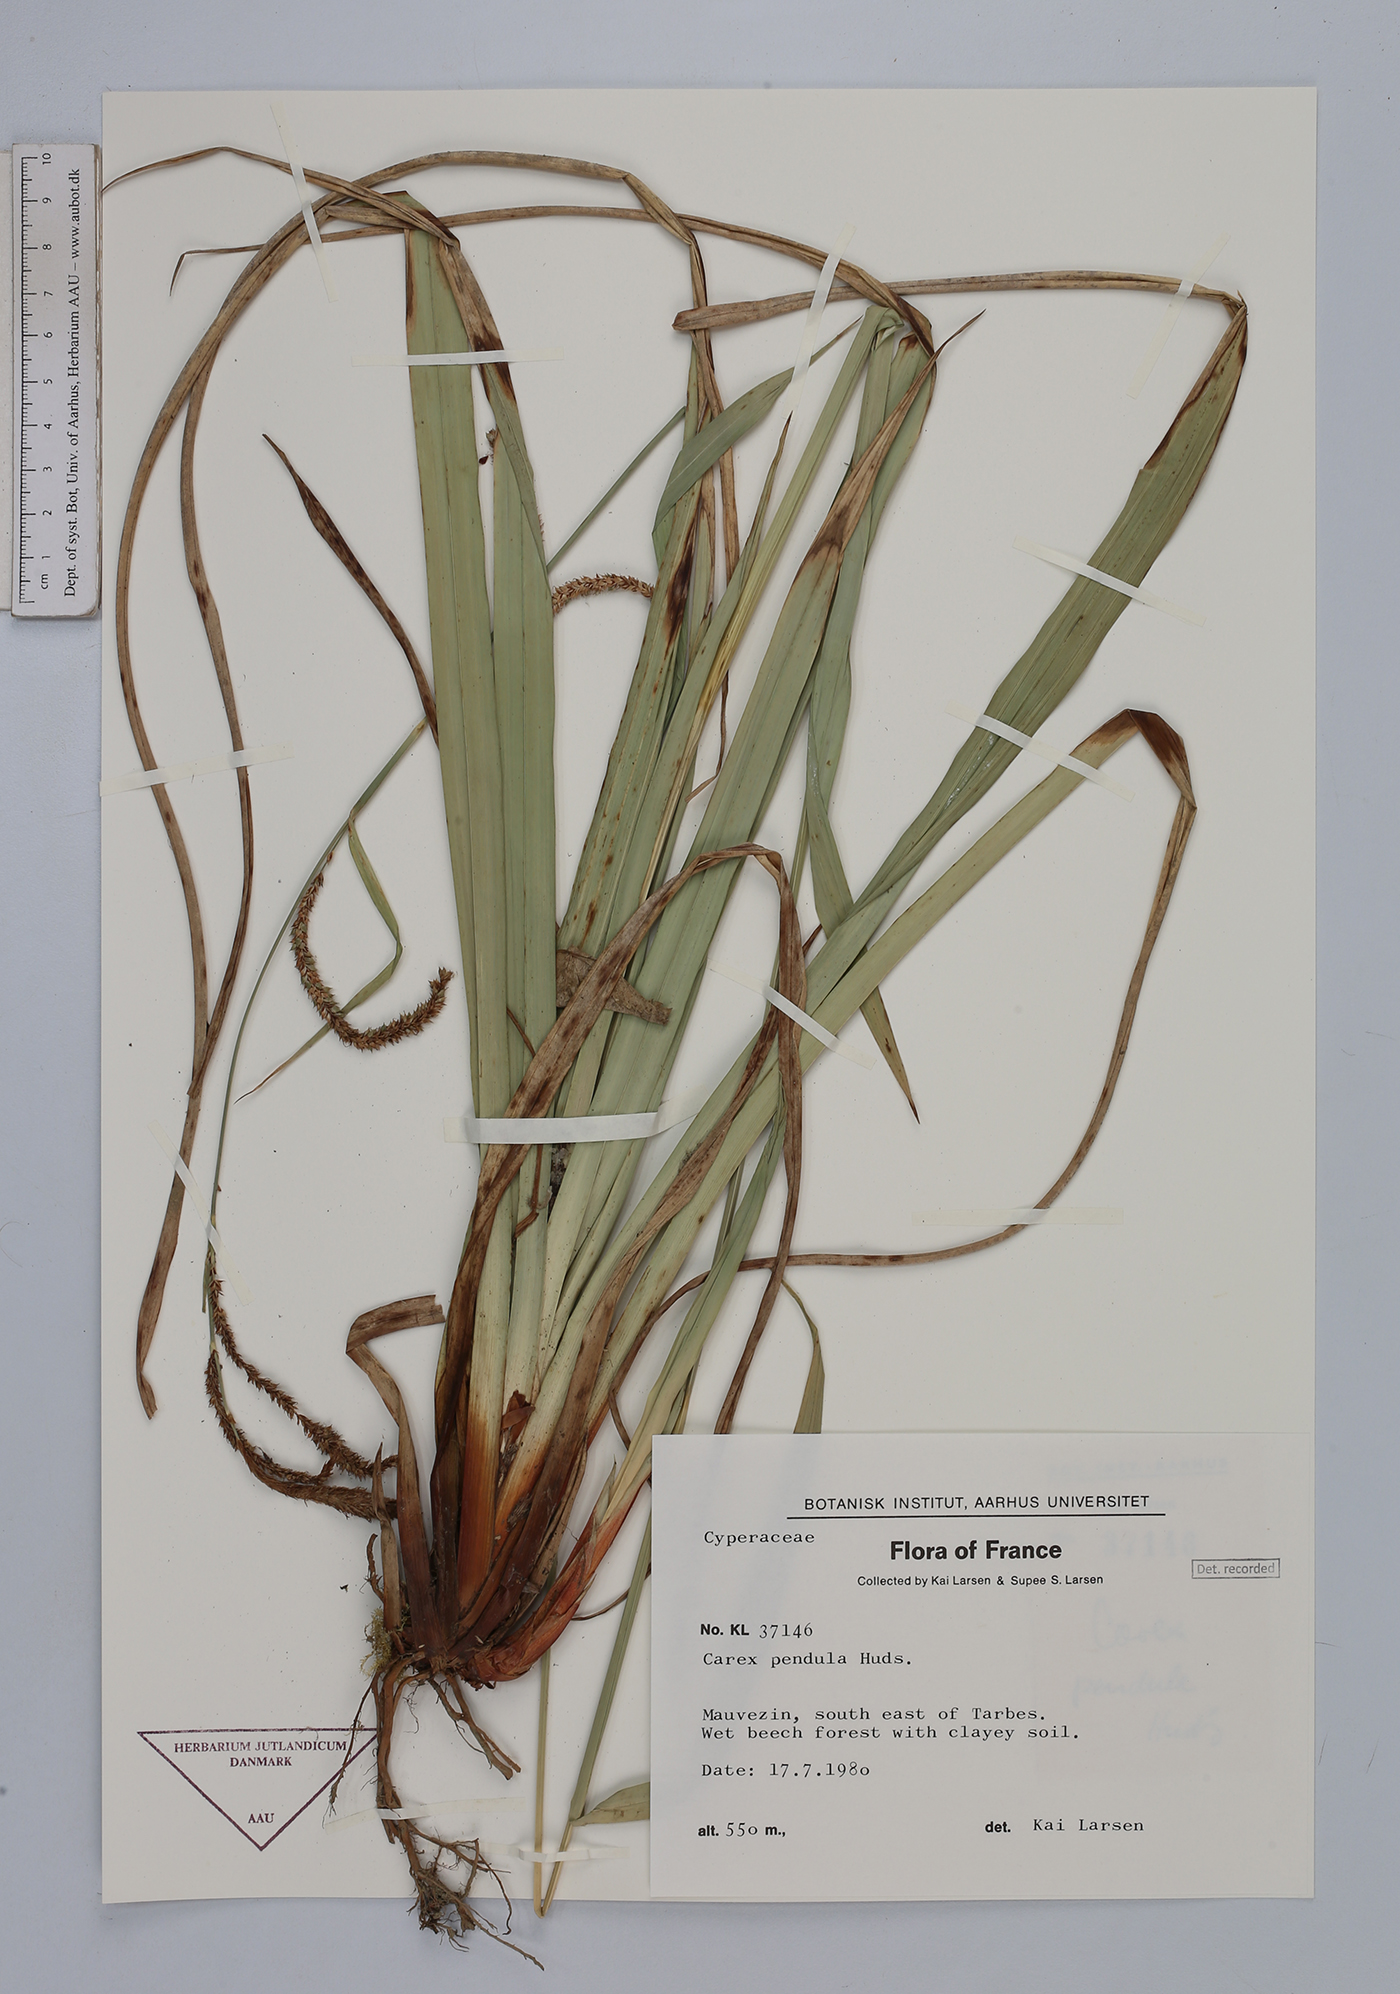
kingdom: Plantae
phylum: Tracheophyta
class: Liliopsida
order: Poales
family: Cyperaceae
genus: Carex
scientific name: Carex pendula
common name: Pendulous sedge
